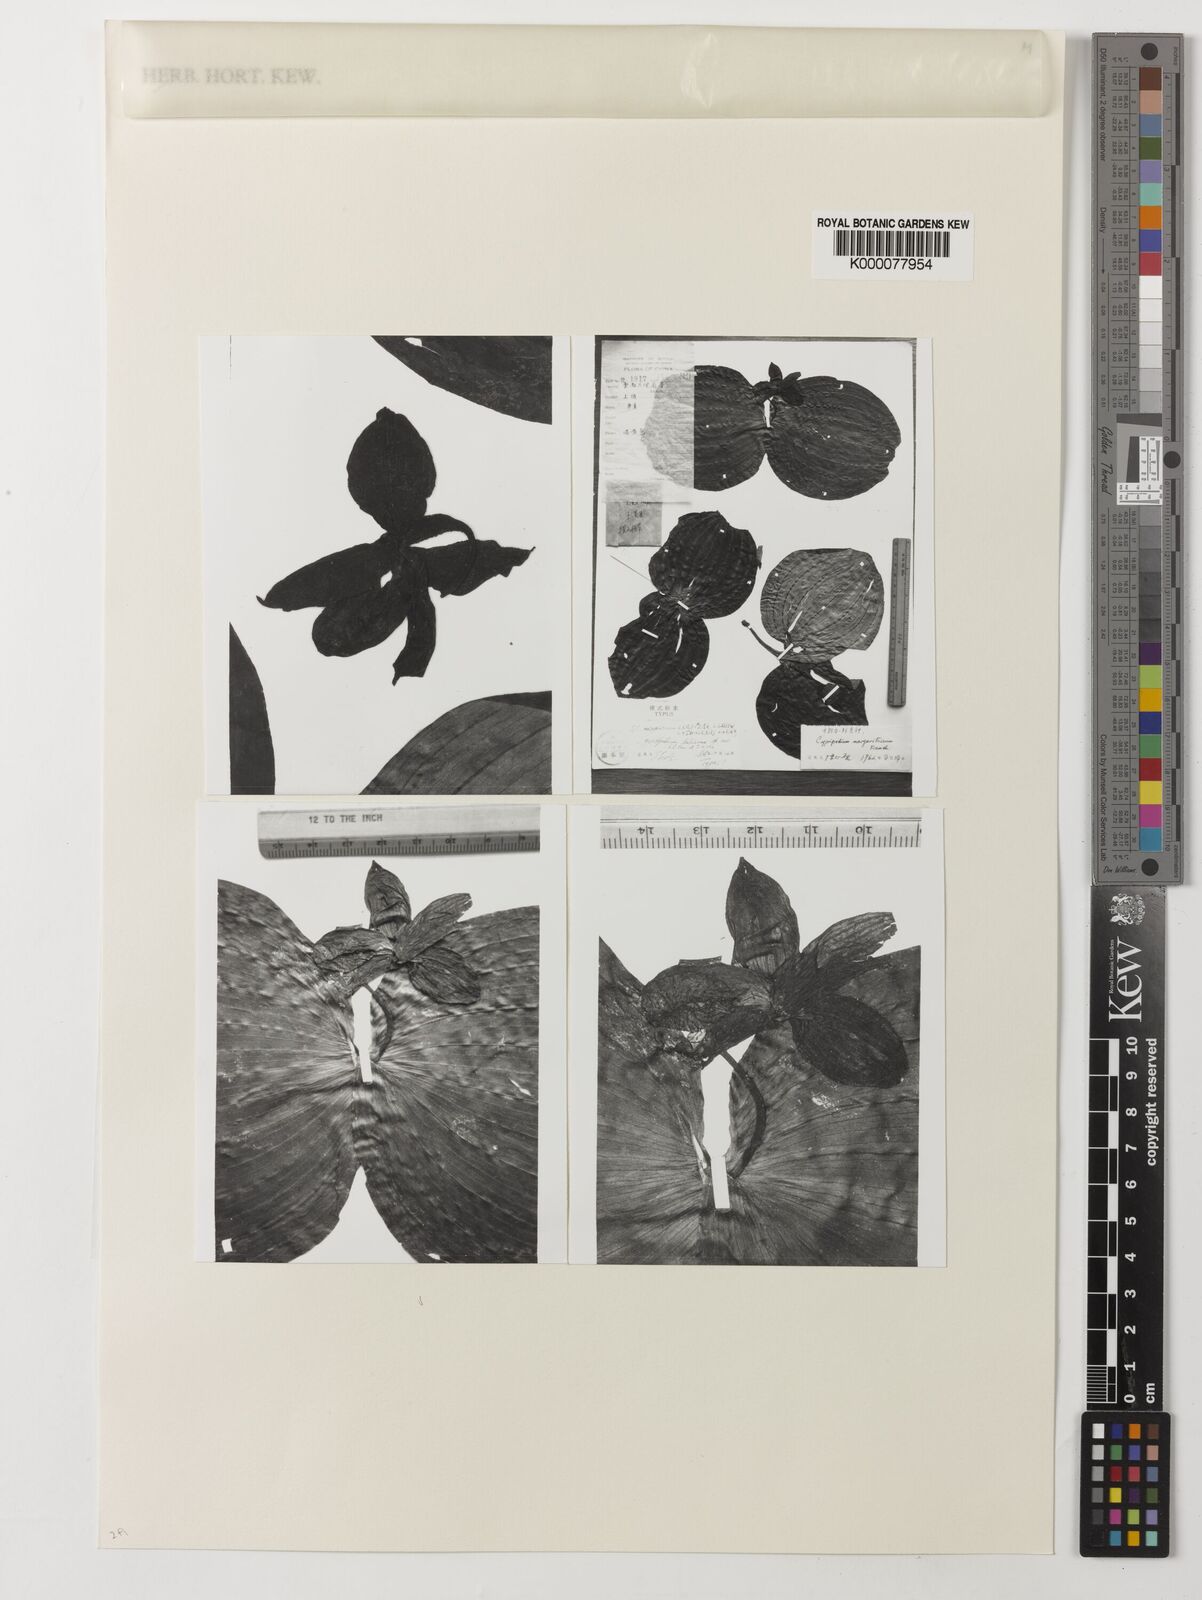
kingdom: Plantae
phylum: Tracheophyta
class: Liliopsida
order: Asparagales
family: Orchidaceae
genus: Cypripedium
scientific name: Cypripedium margaritaceum
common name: Farges' cypripedium
